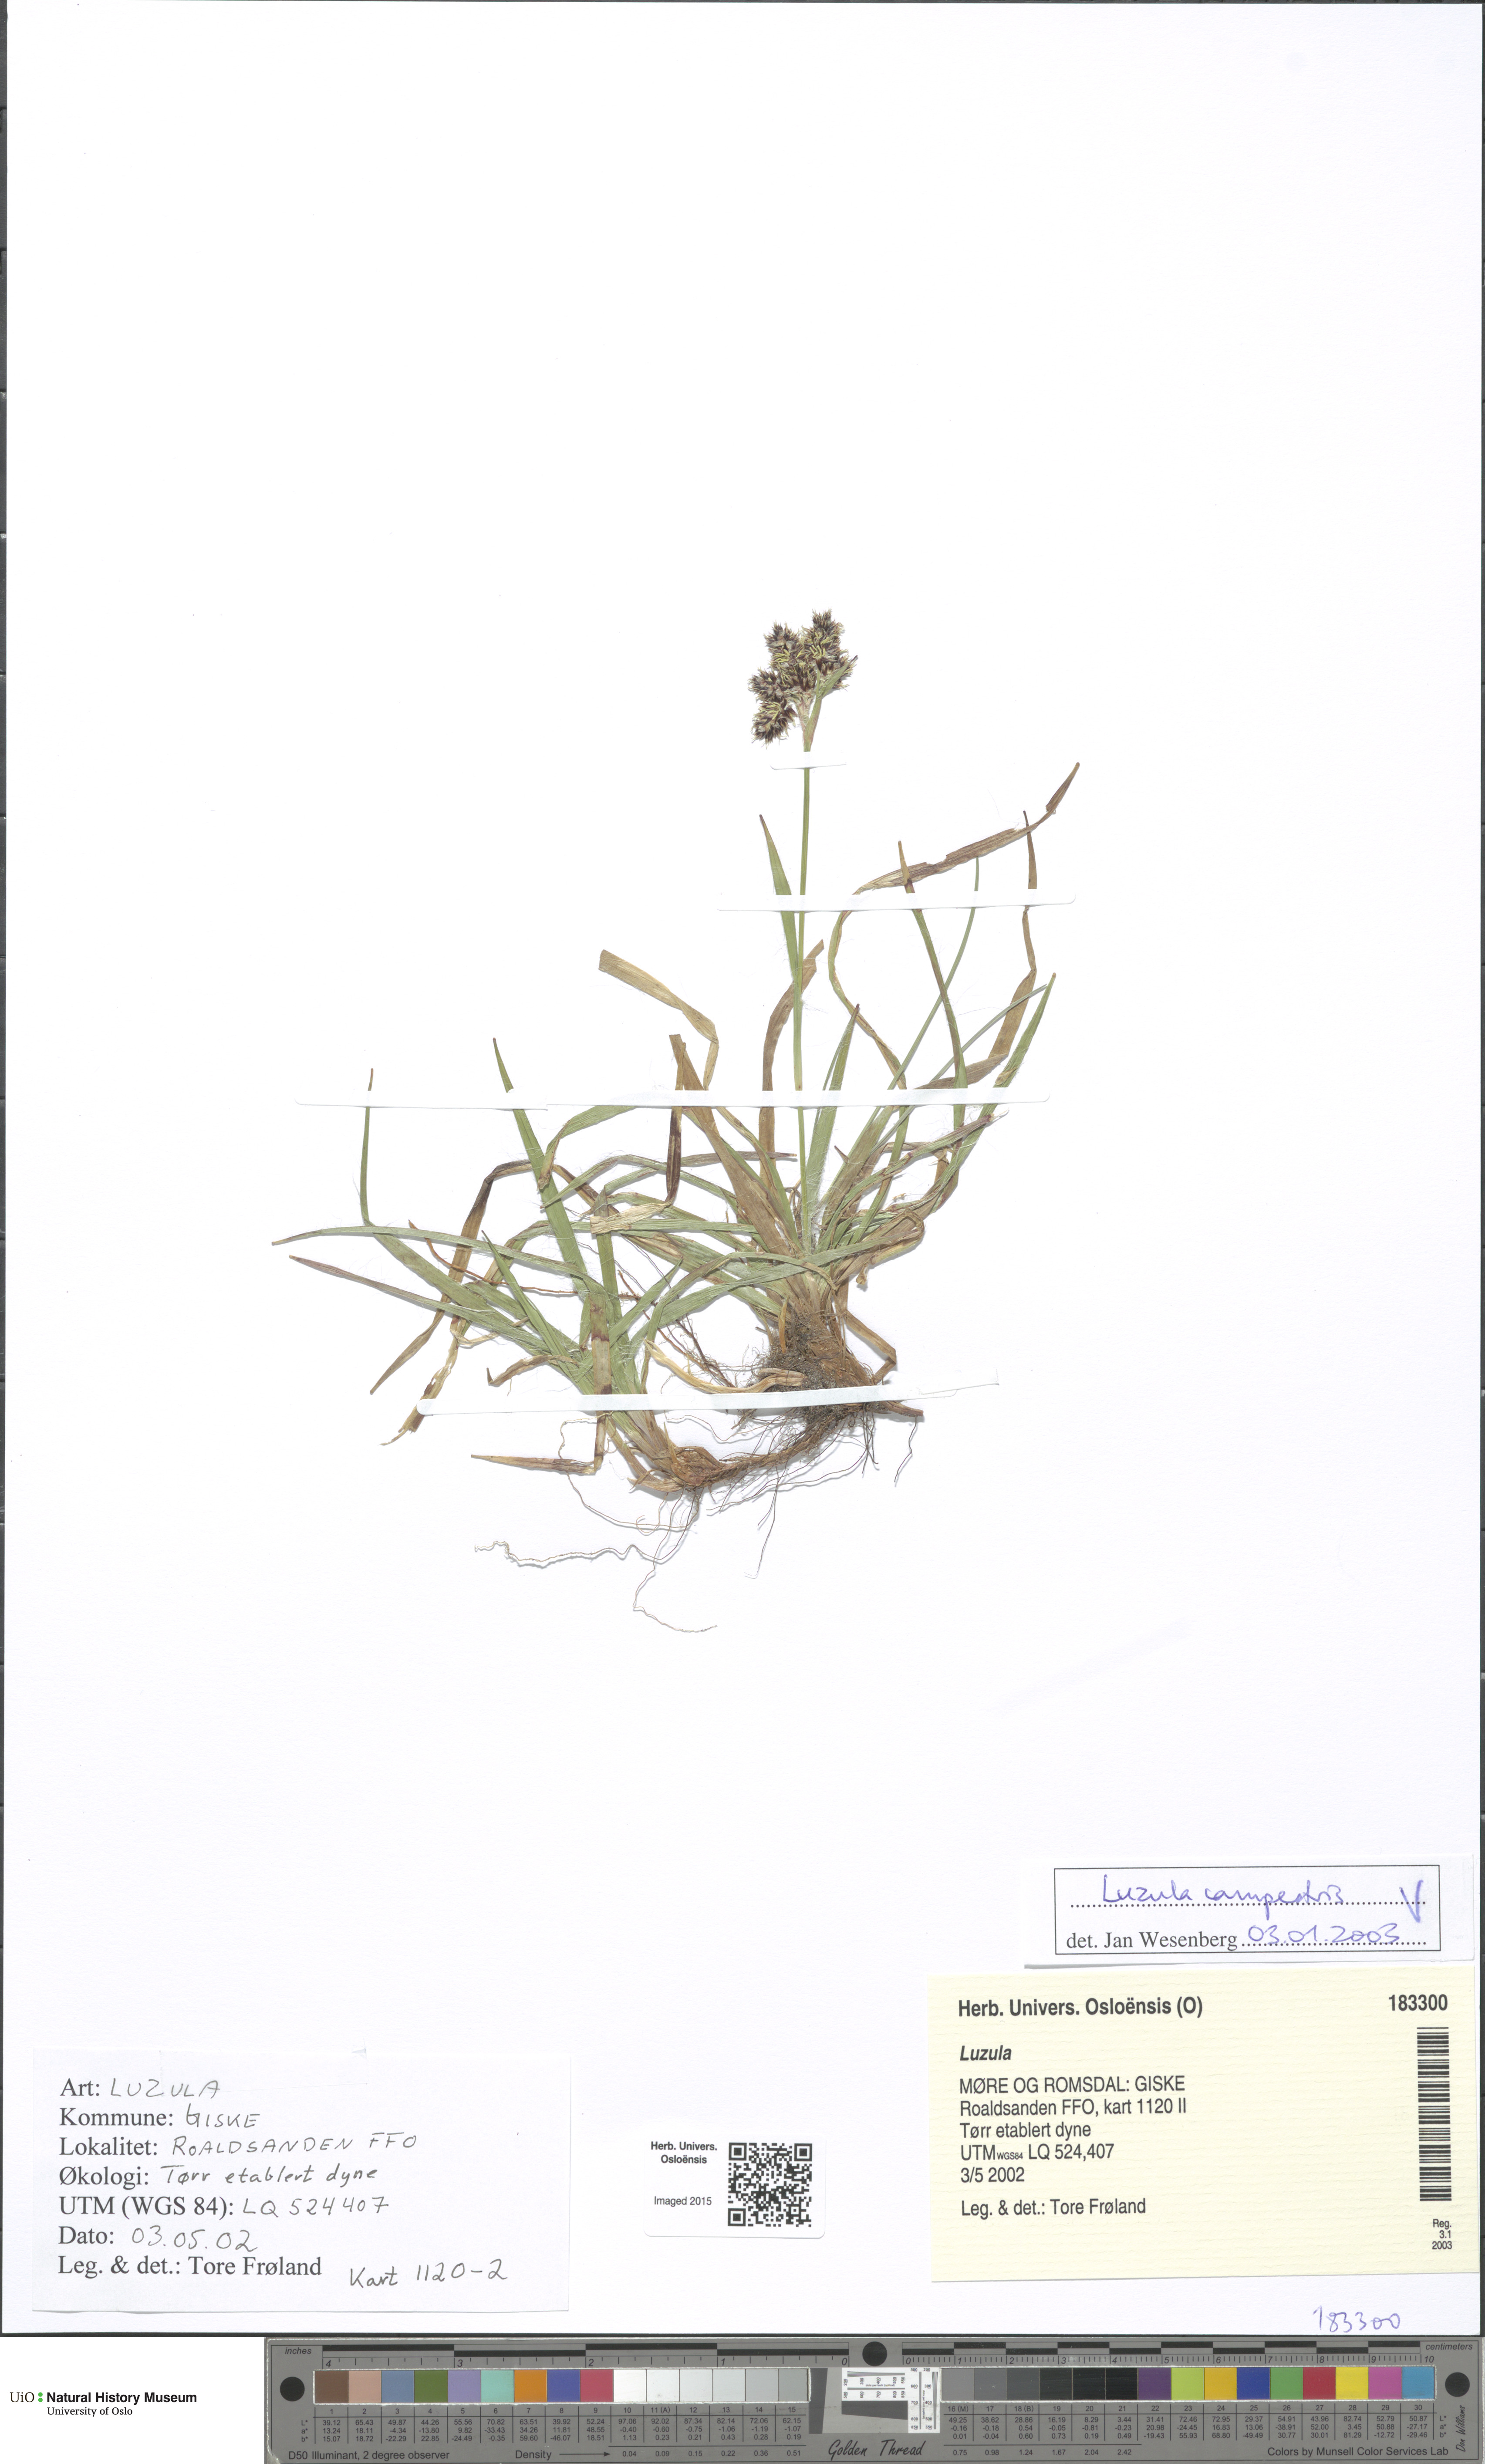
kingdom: Plantae
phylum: Tracheophyta
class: Liliopsida
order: Poales
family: Juncaceae
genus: Luzula
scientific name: Luzula campestris
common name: Field wood-rush
